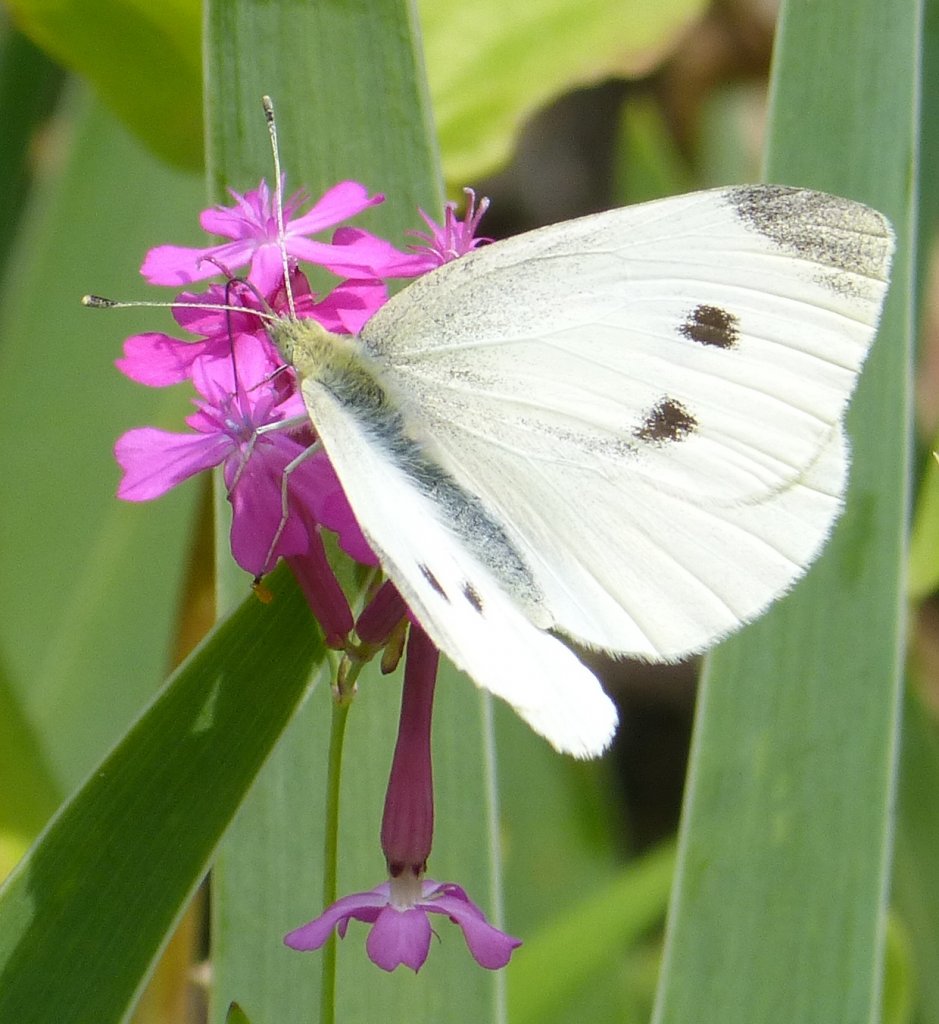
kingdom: Animalia
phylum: Arthropoda
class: Insecta
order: Lepidoptera
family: Pieridae
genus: Pieris
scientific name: Pieris rapae
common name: Cabbage White
